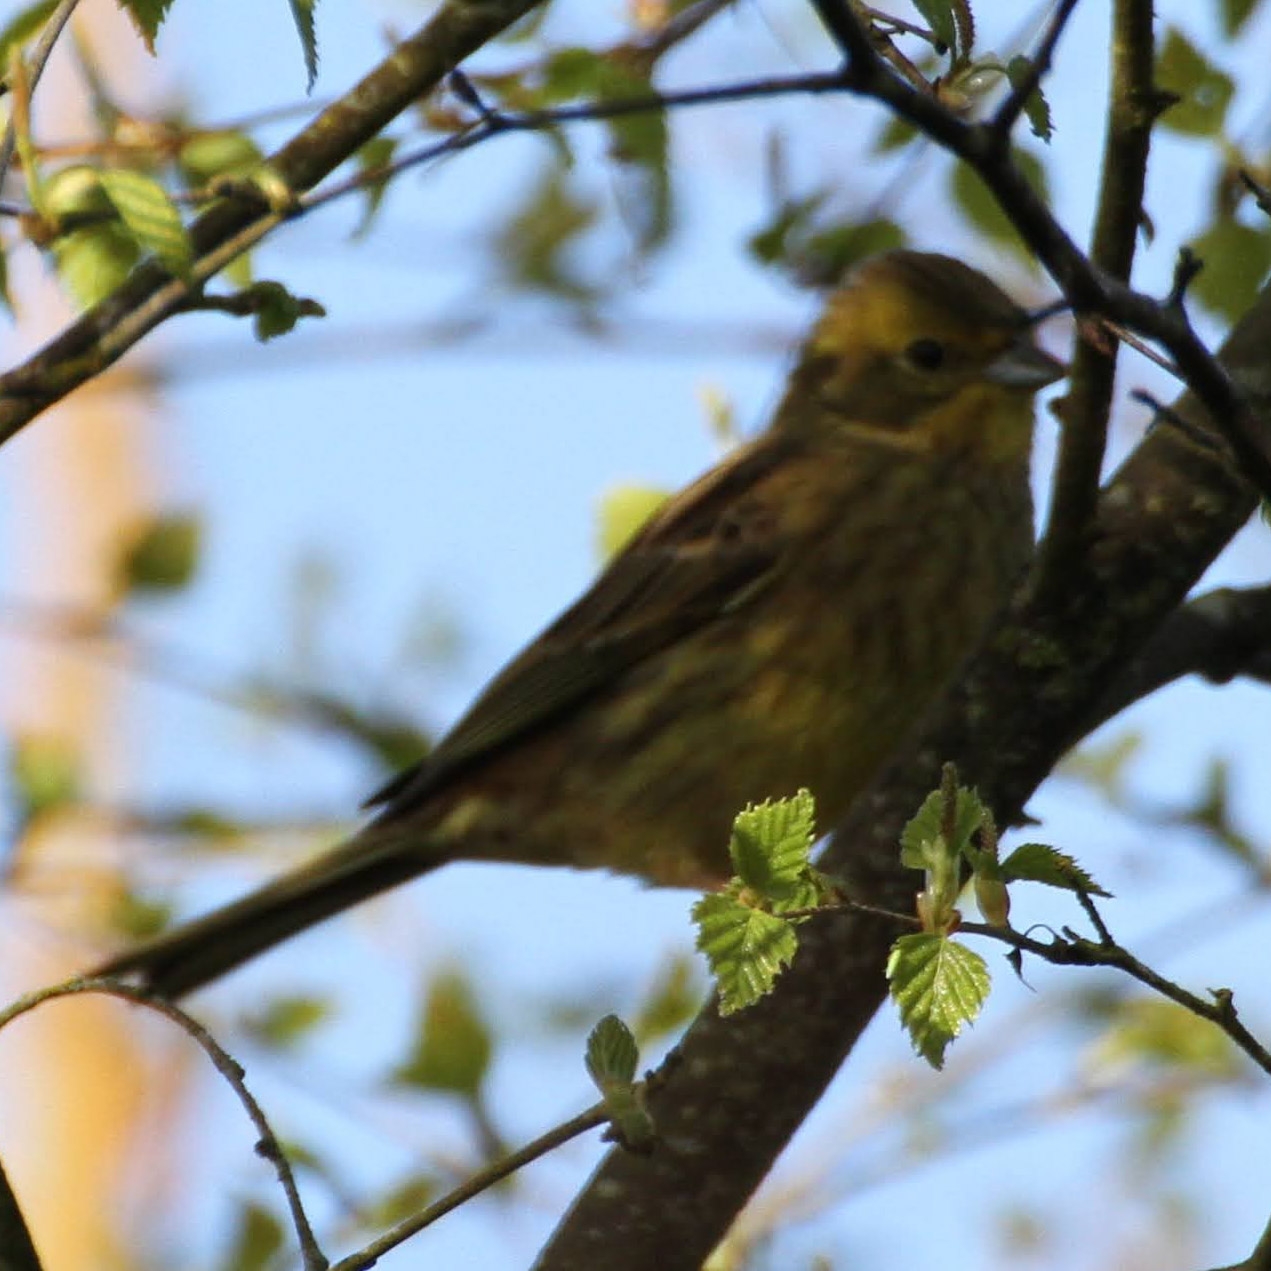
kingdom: Animalia
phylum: Chordata
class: Aves
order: Passeriformes
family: Emberizidae
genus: Emberiza
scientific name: Emberiza citrinella
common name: Gulspurv
